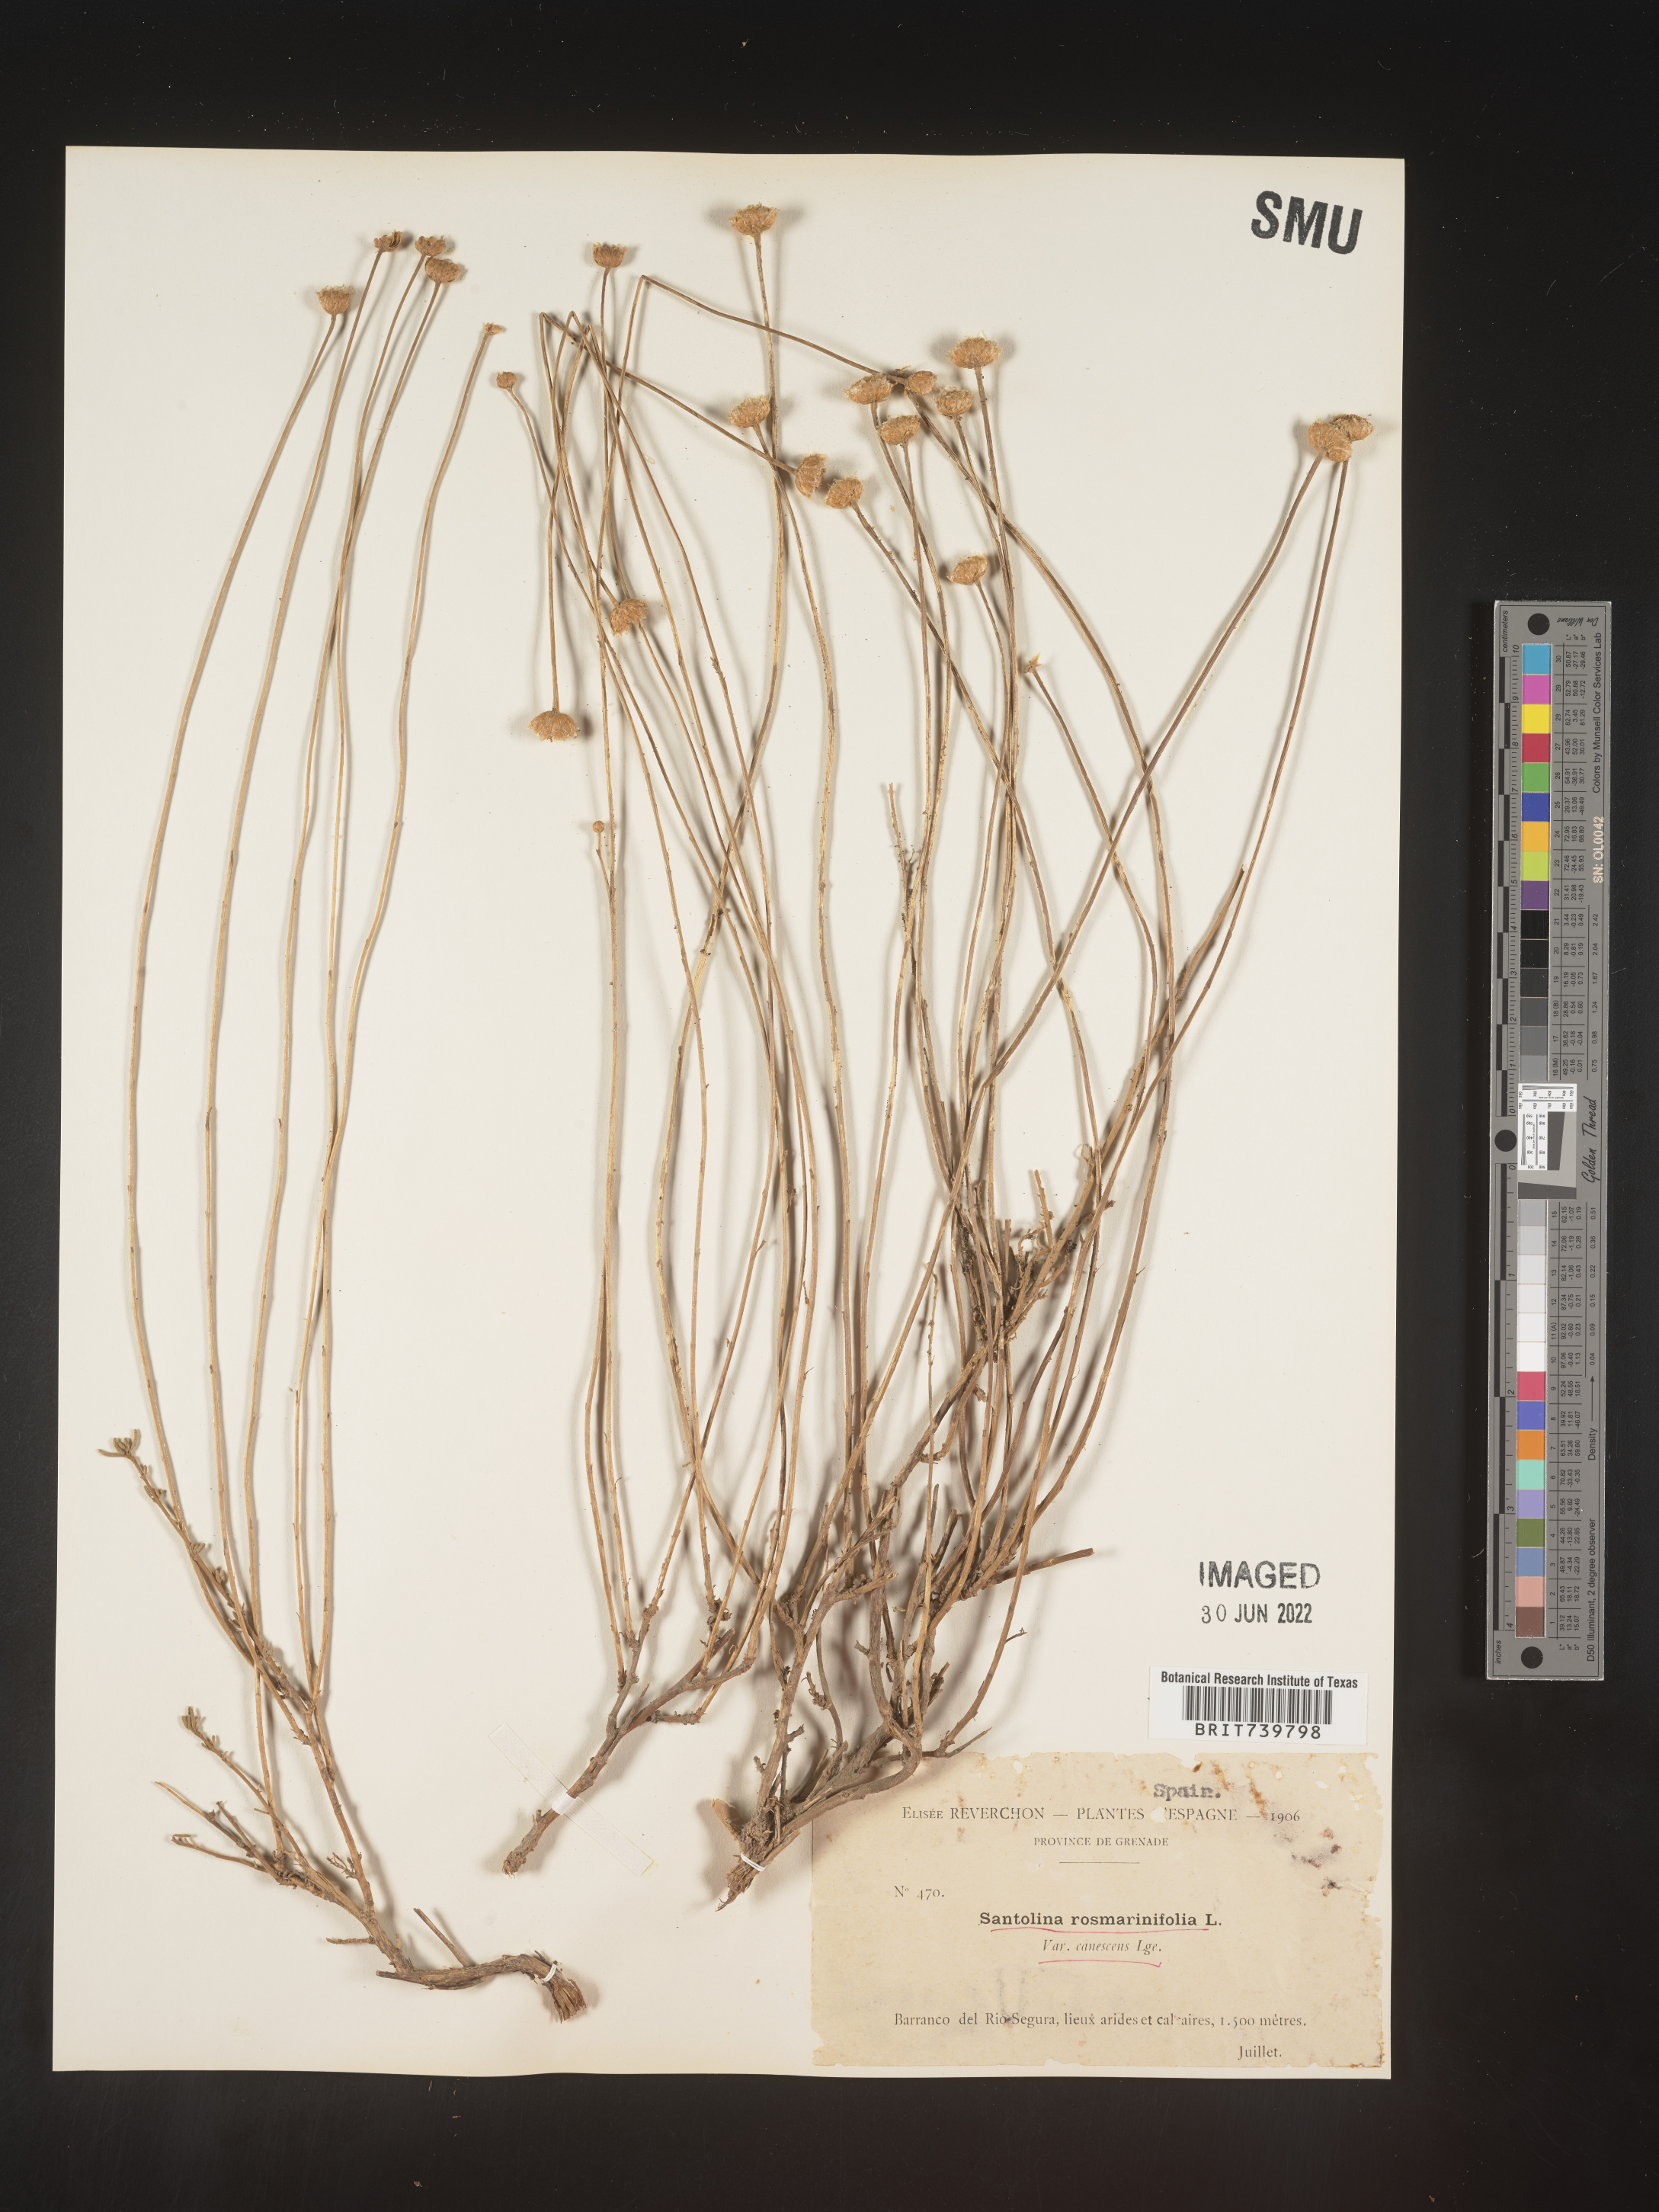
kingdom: Plantae
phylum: Tracheophyta
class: Magnoliopsida
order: Asterales
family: Asteraceae
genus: Santolina
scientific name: Santolina
